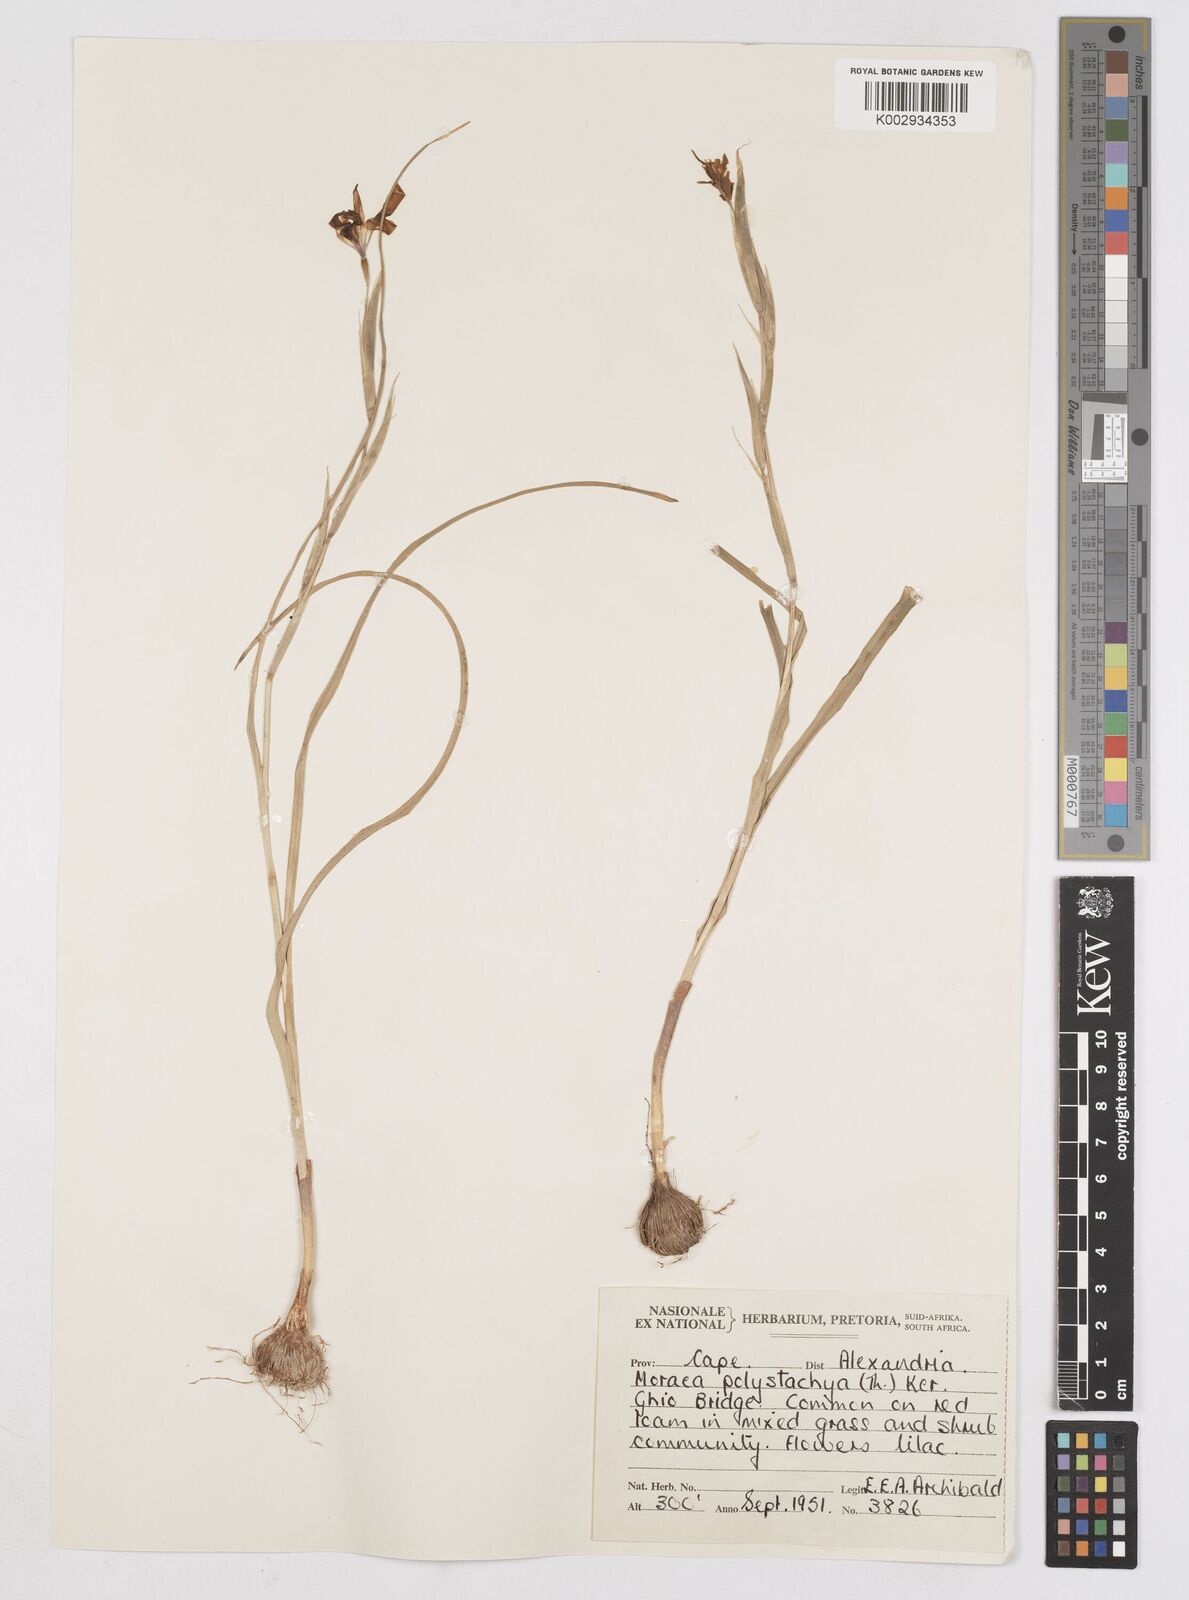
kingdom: Plantae
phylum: Tracheophyta
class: Liliopsida
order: Asparagales
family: Iridaceae
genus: Moraea
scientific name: Moraea polystachya
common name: Blue-tulip
